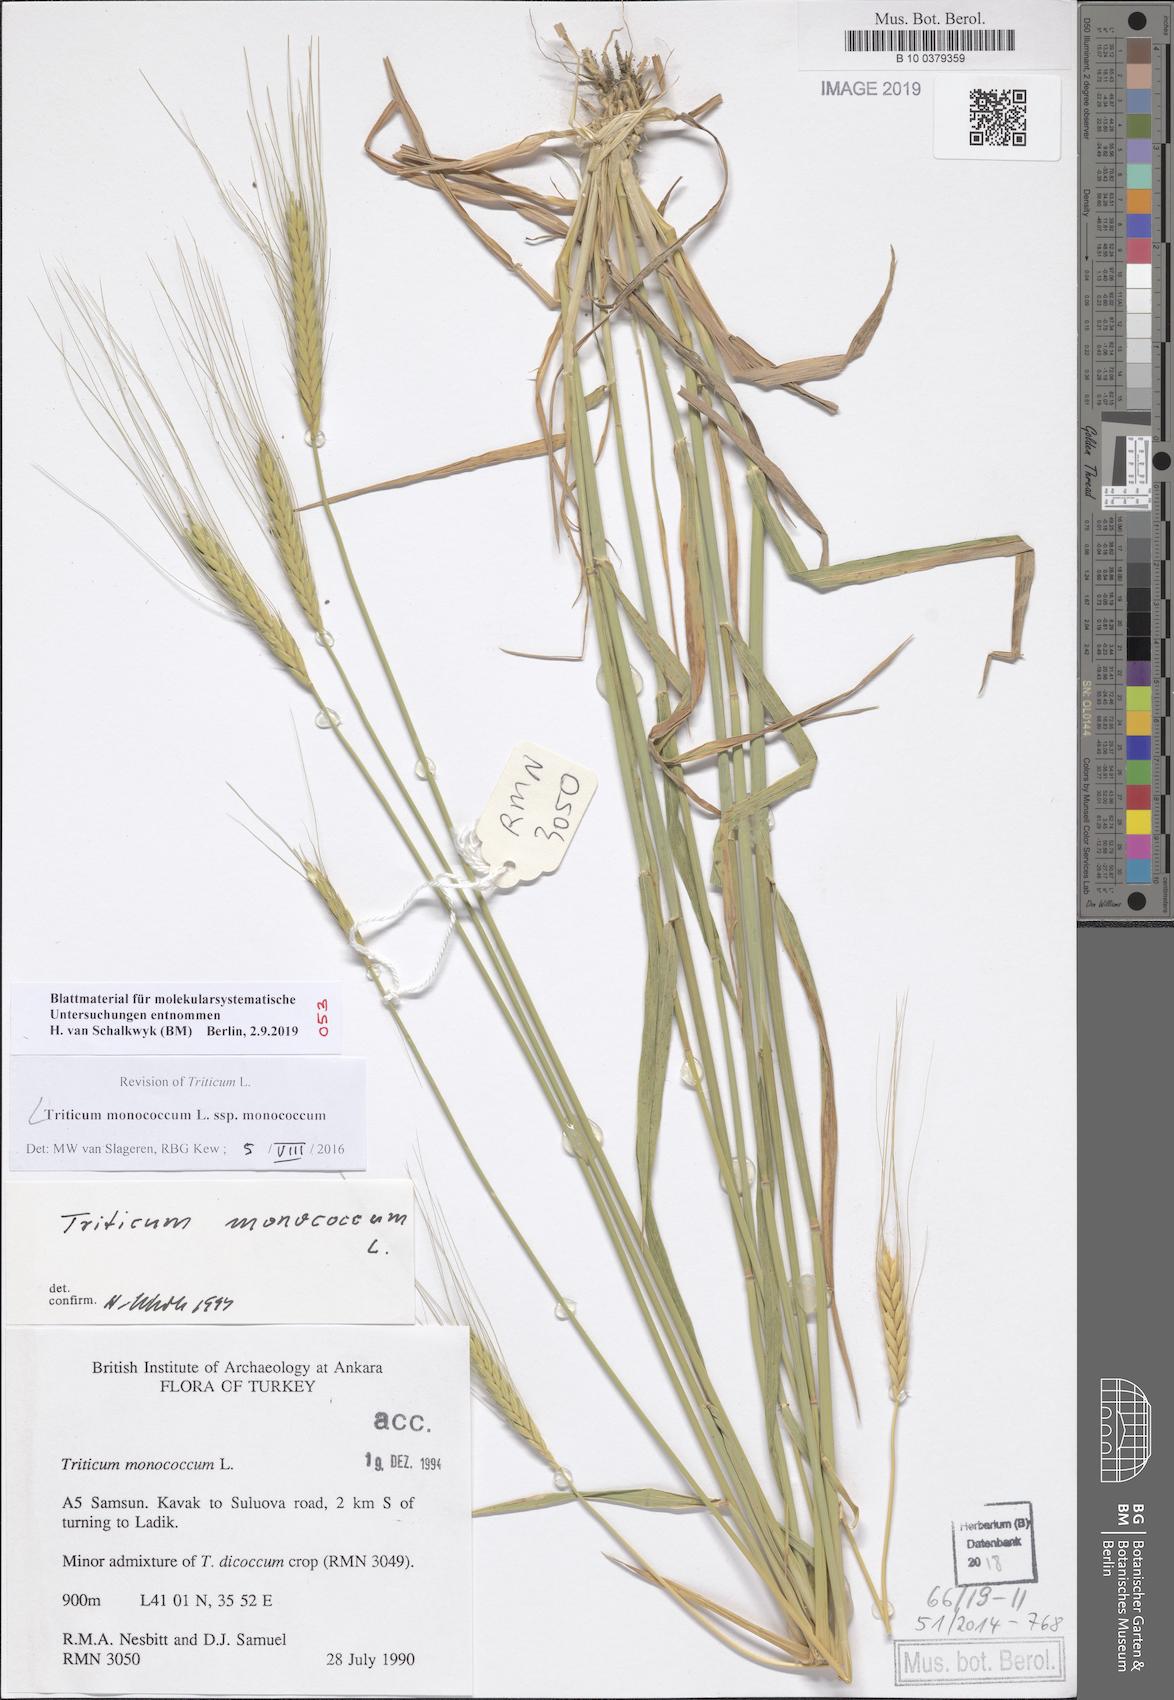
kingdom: Plantae
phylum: Tracheophyta
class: Liliopsida
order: Poales
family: Poaceae
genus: Triticum
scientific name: Triticum monococcum
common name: Einkorn
